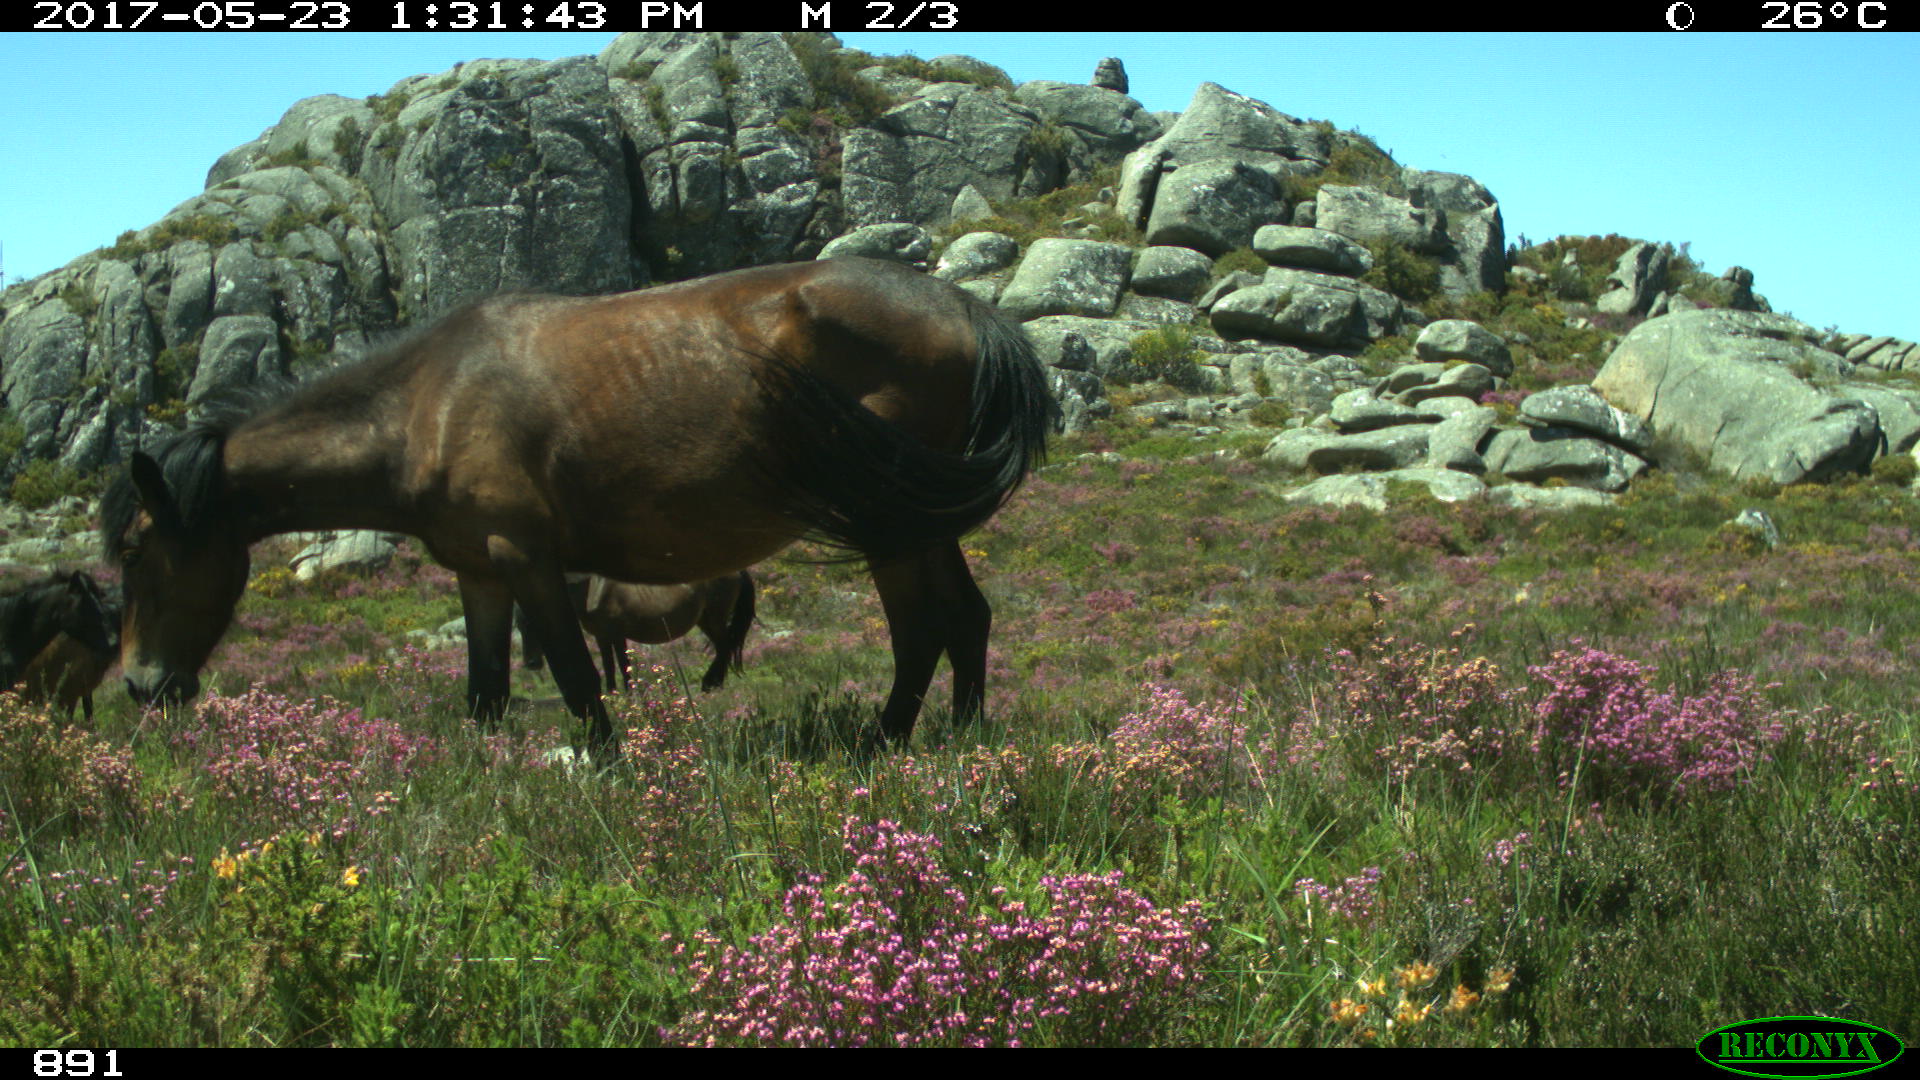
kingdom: Animalia
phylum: Chordata
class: Mammalia
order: Perissodactyla
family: Equidae
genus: Equus
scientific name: Equus caballus
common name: Horse
